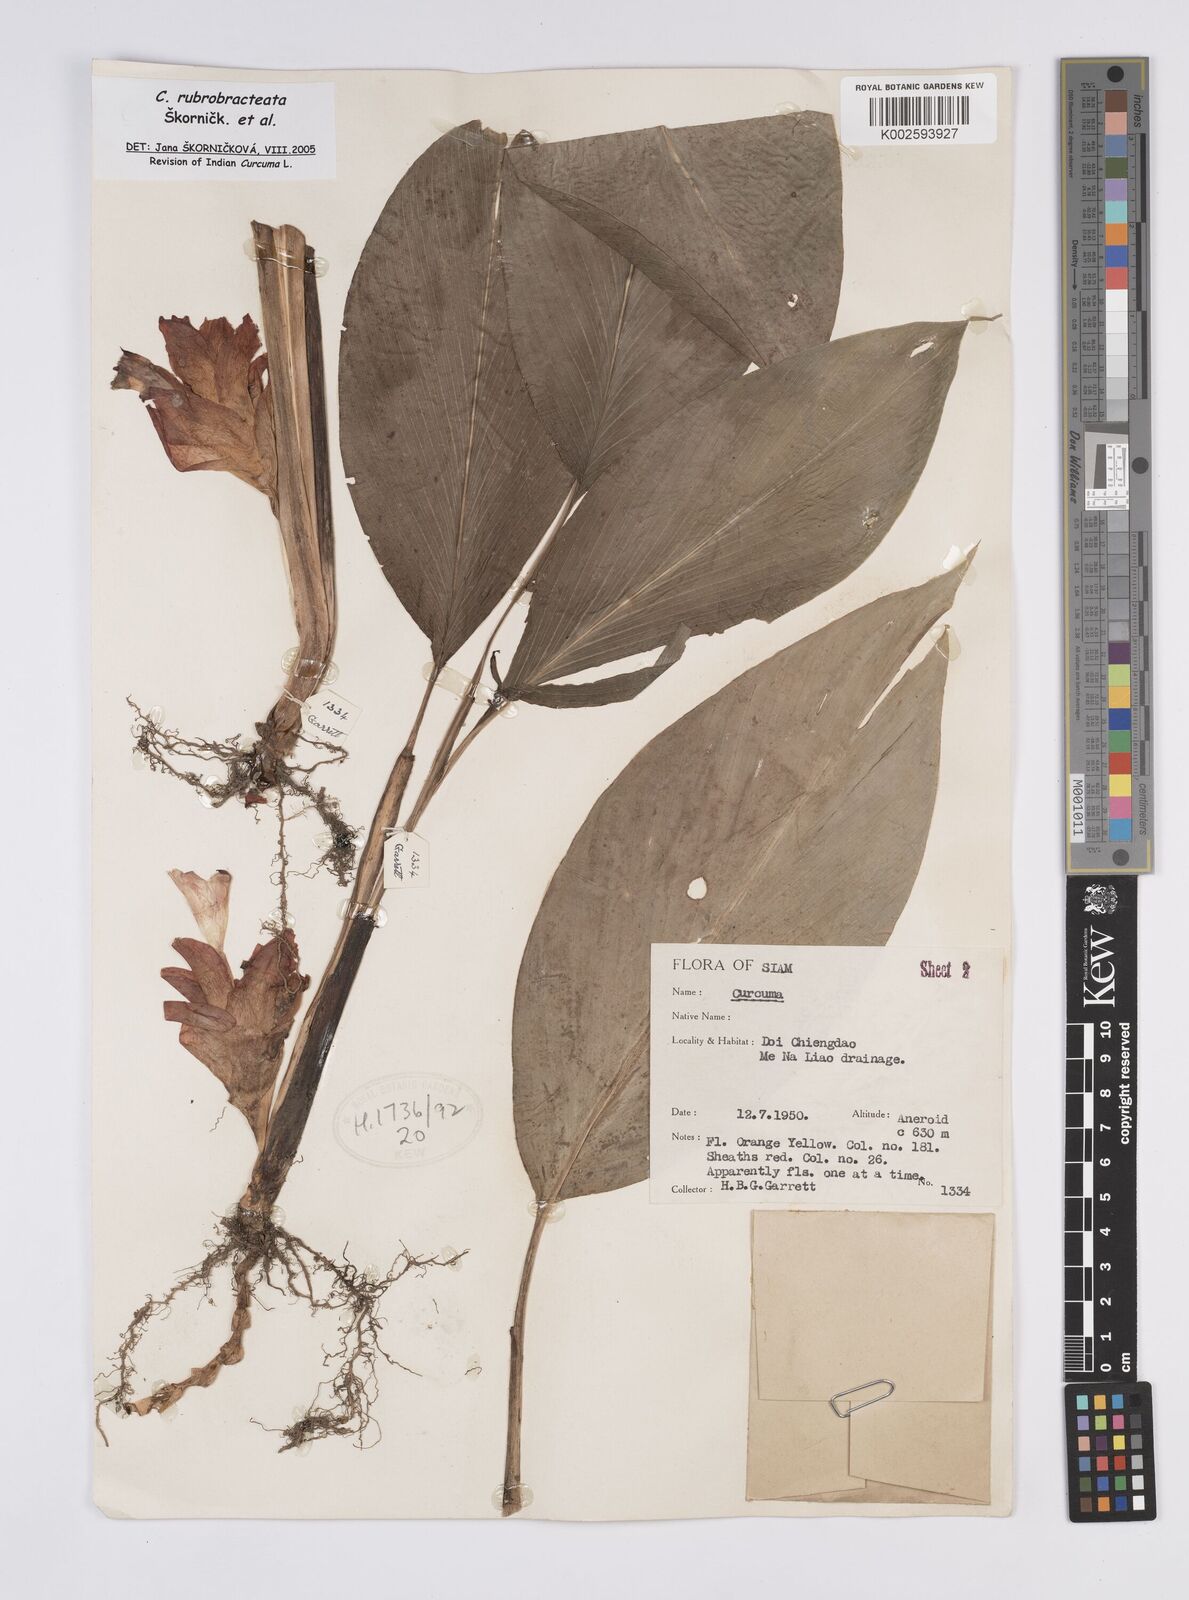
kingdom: Plantae
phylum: Tracheophyta
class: Liliopsida
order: Zingiberales
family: Zingiberaceae
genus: Curcuma
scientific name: Curcuma rubrobracteata
